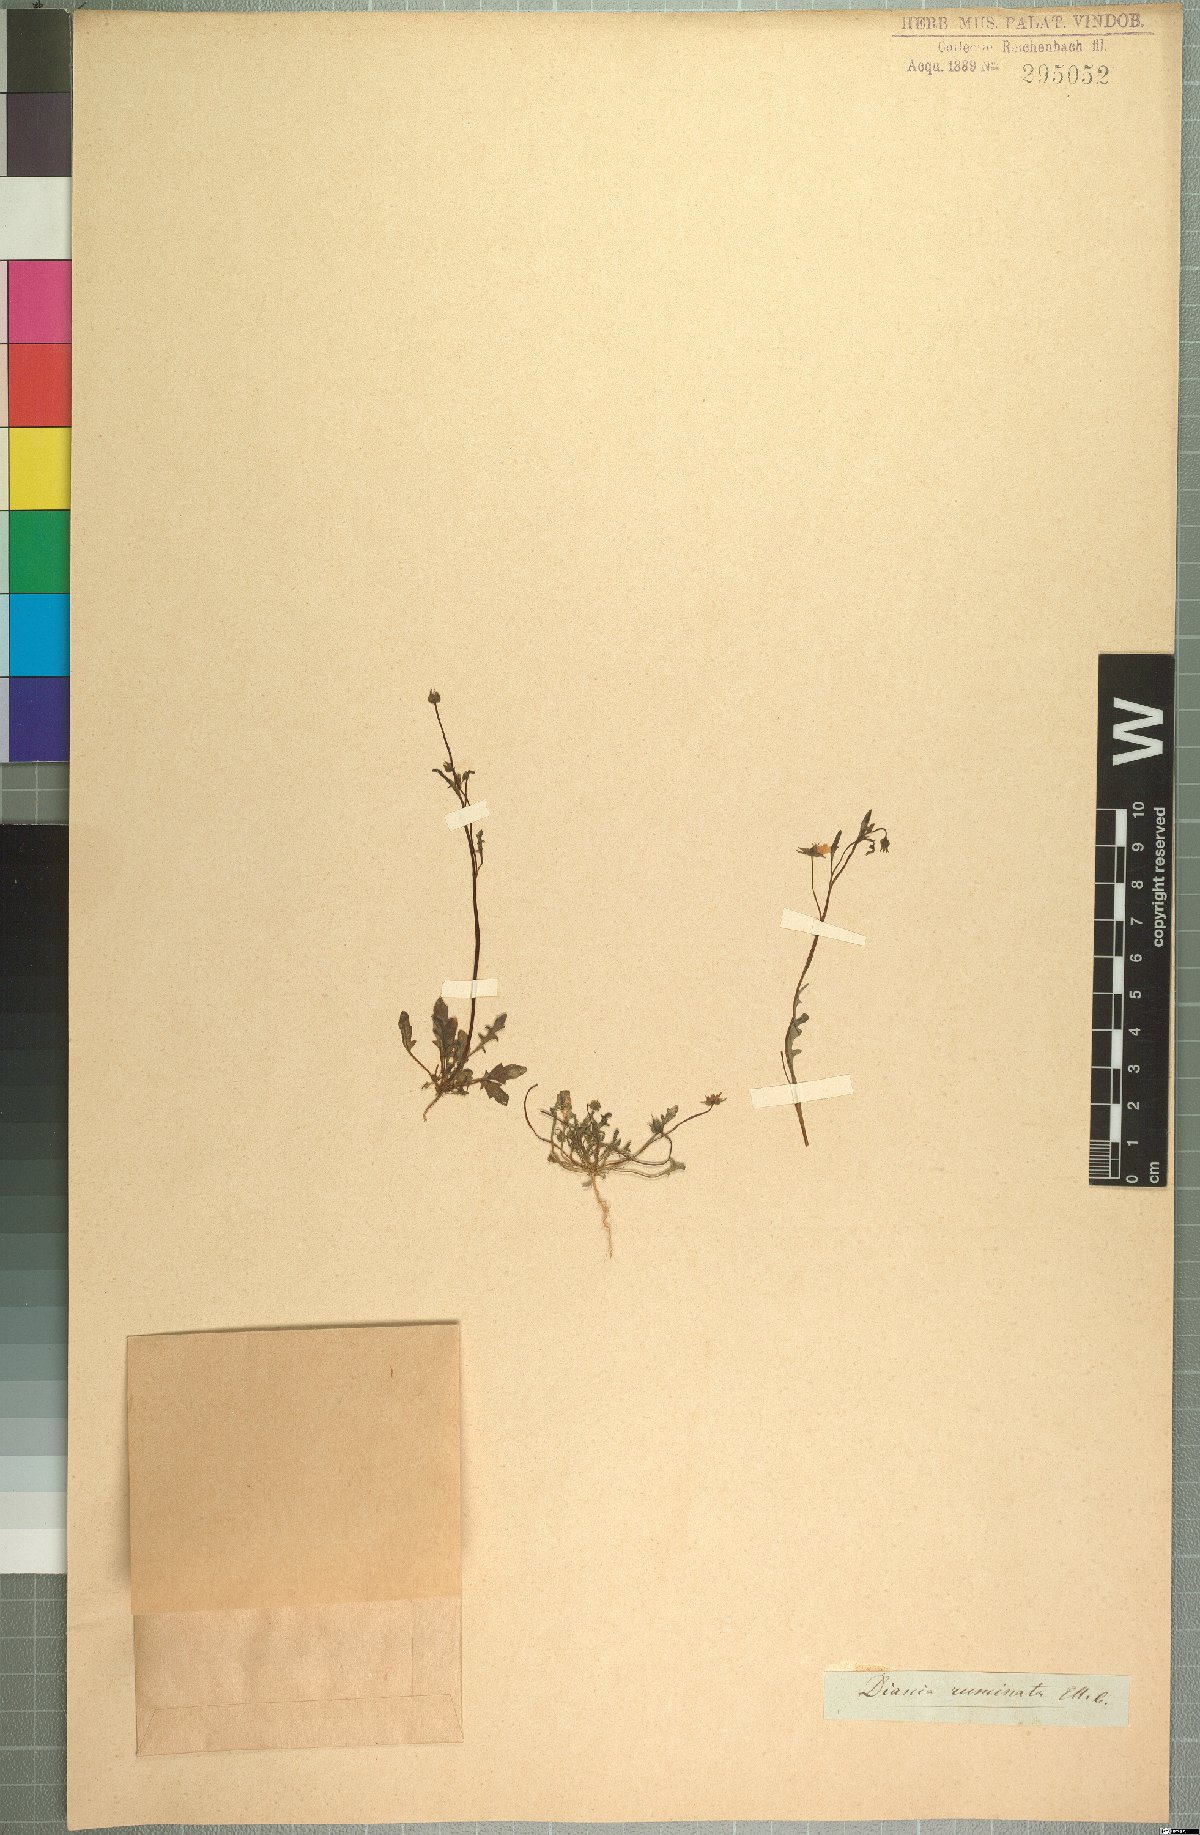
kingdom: Plantae
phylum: Tracheophyta
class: Magnoliopsida
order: Lamiales
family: Scrophulariaceae
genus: Diascia
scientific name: Diascia runcinata
